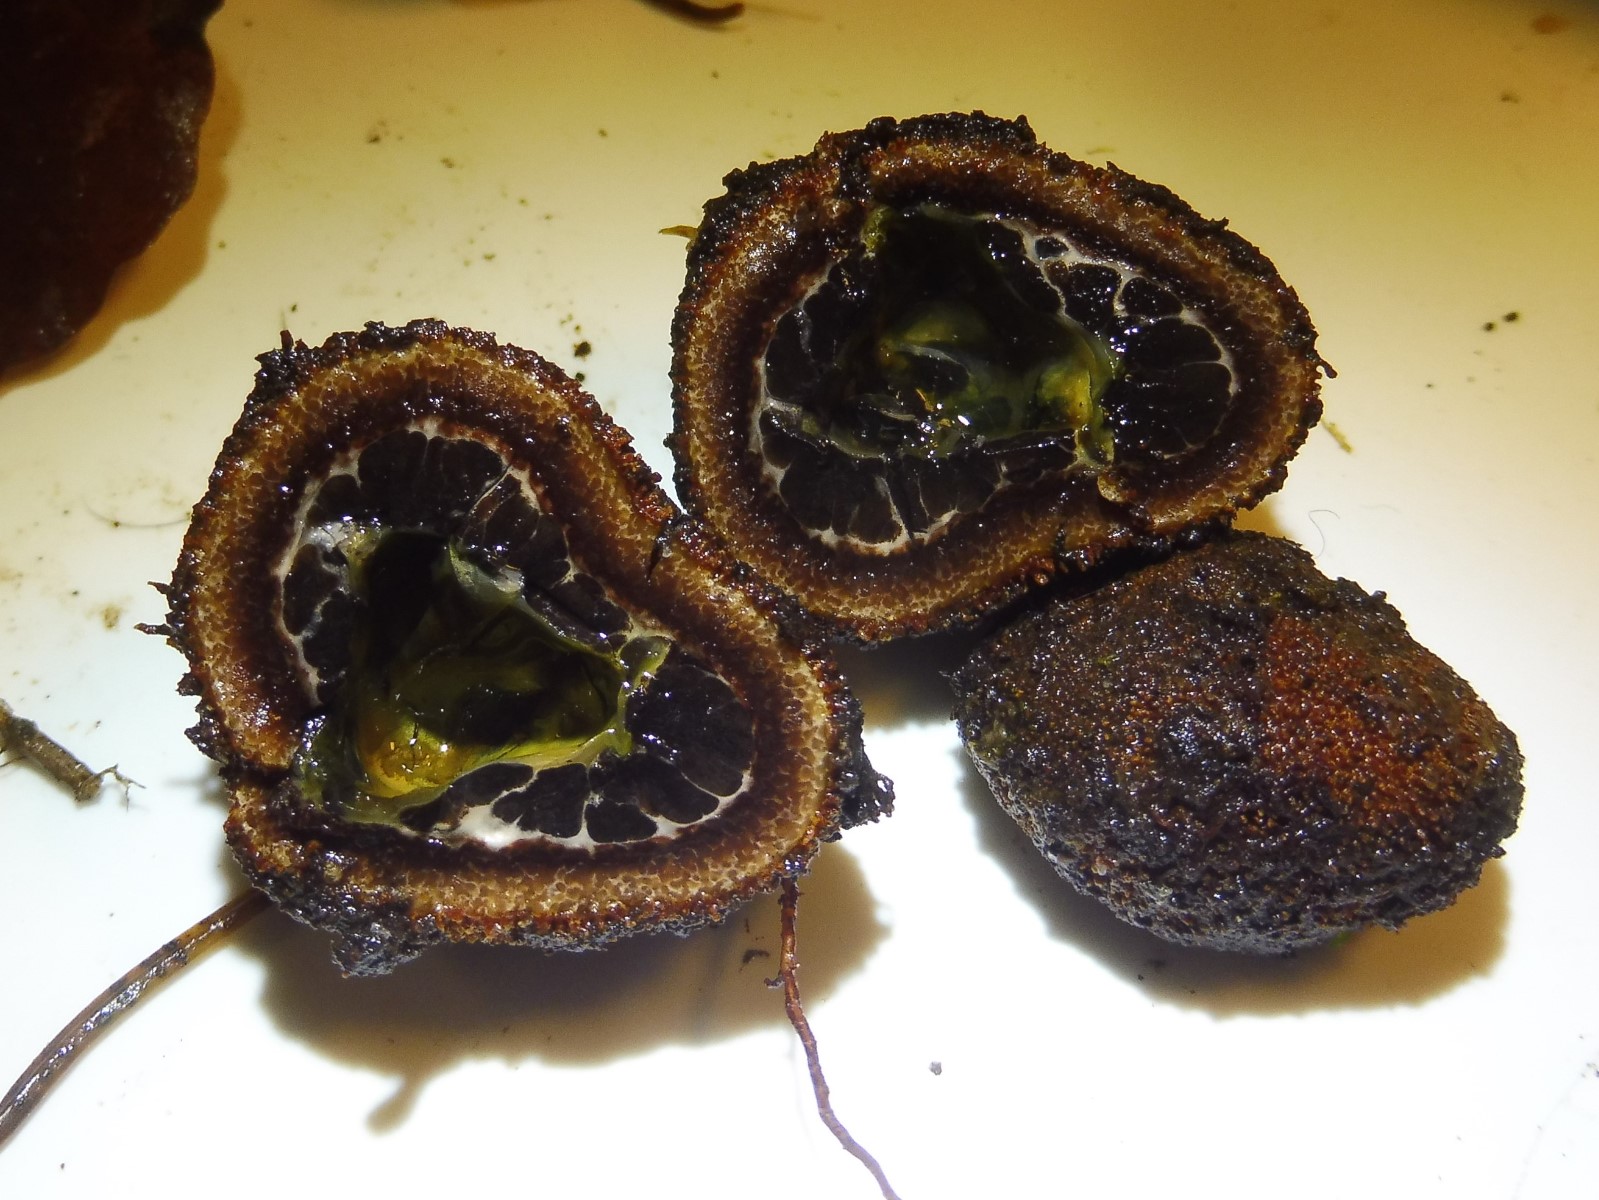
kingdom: Fungi
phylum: Ascomycota
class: Eurotiomycetes
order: Eurotiales
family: Elaphomycetaceae
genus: Elaphomyces
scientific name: Elaphomyces muricatus
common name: vortet hjortetrøffel
